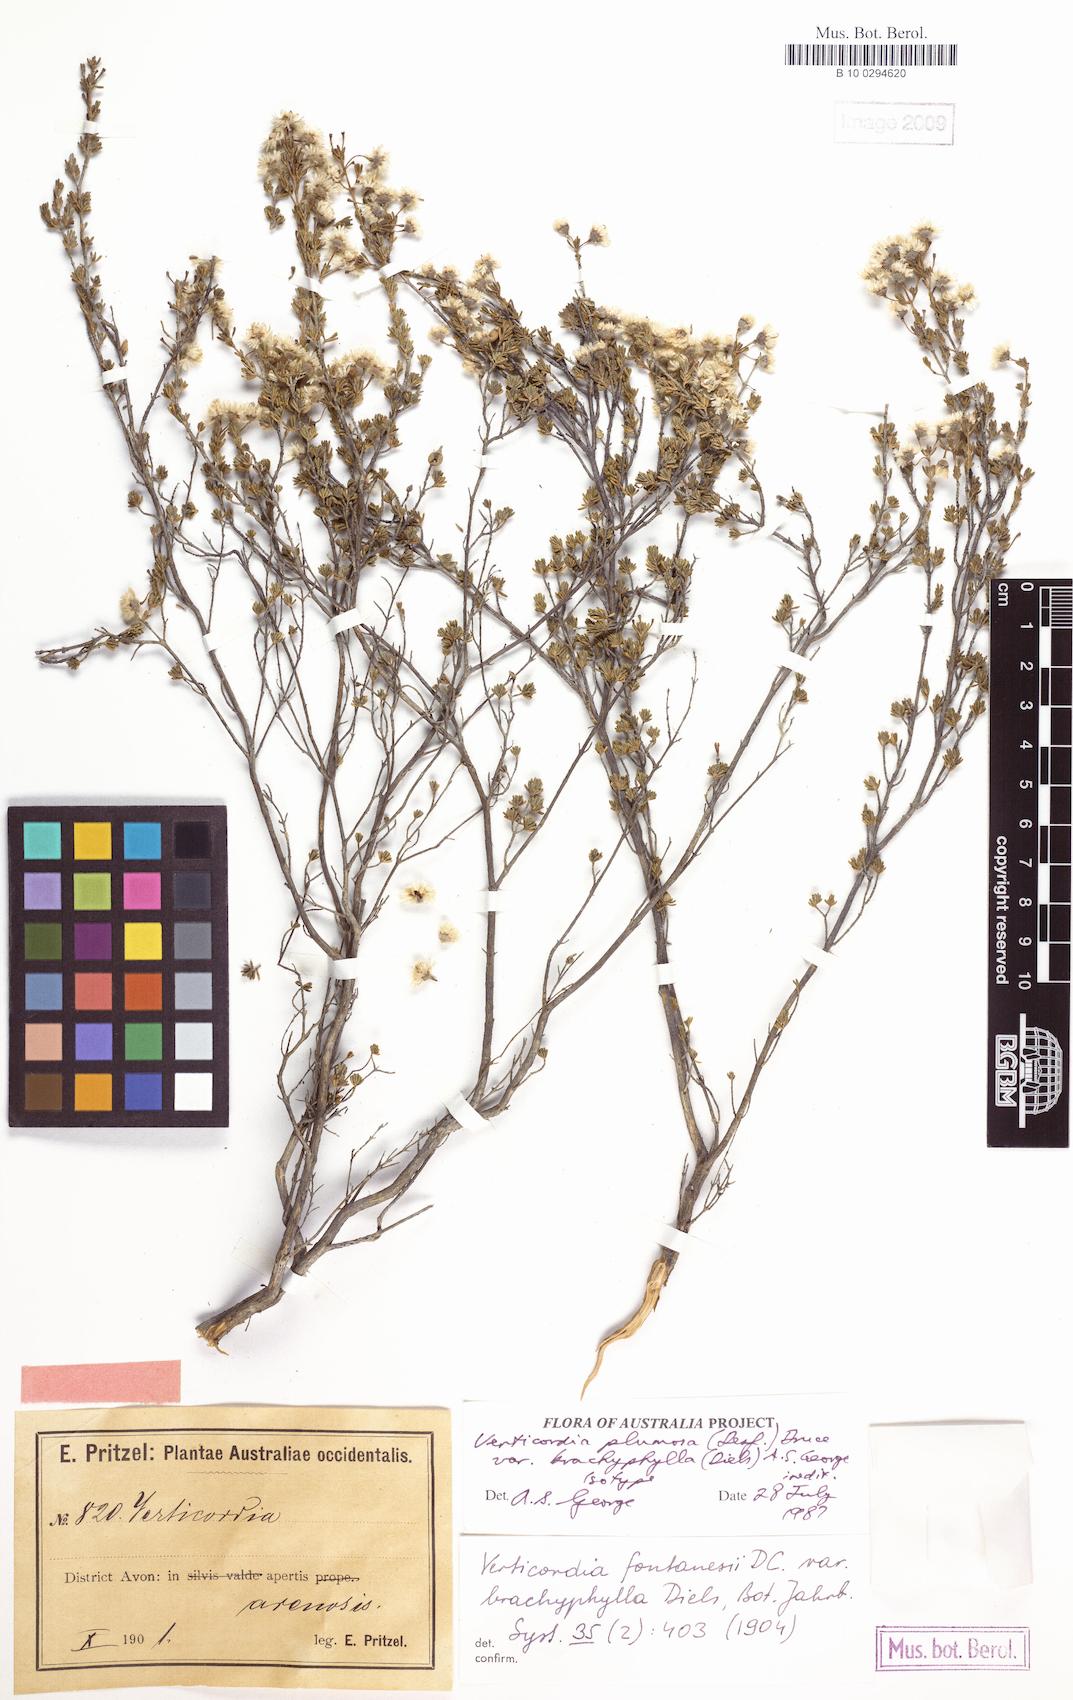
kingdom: Plantae
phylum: Tracheophyta
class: Magnoliopsida
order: Myrtales
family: Myrtaceae
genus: Verticordia
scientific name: Verticordia plumosa
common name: Plume feather-flower
